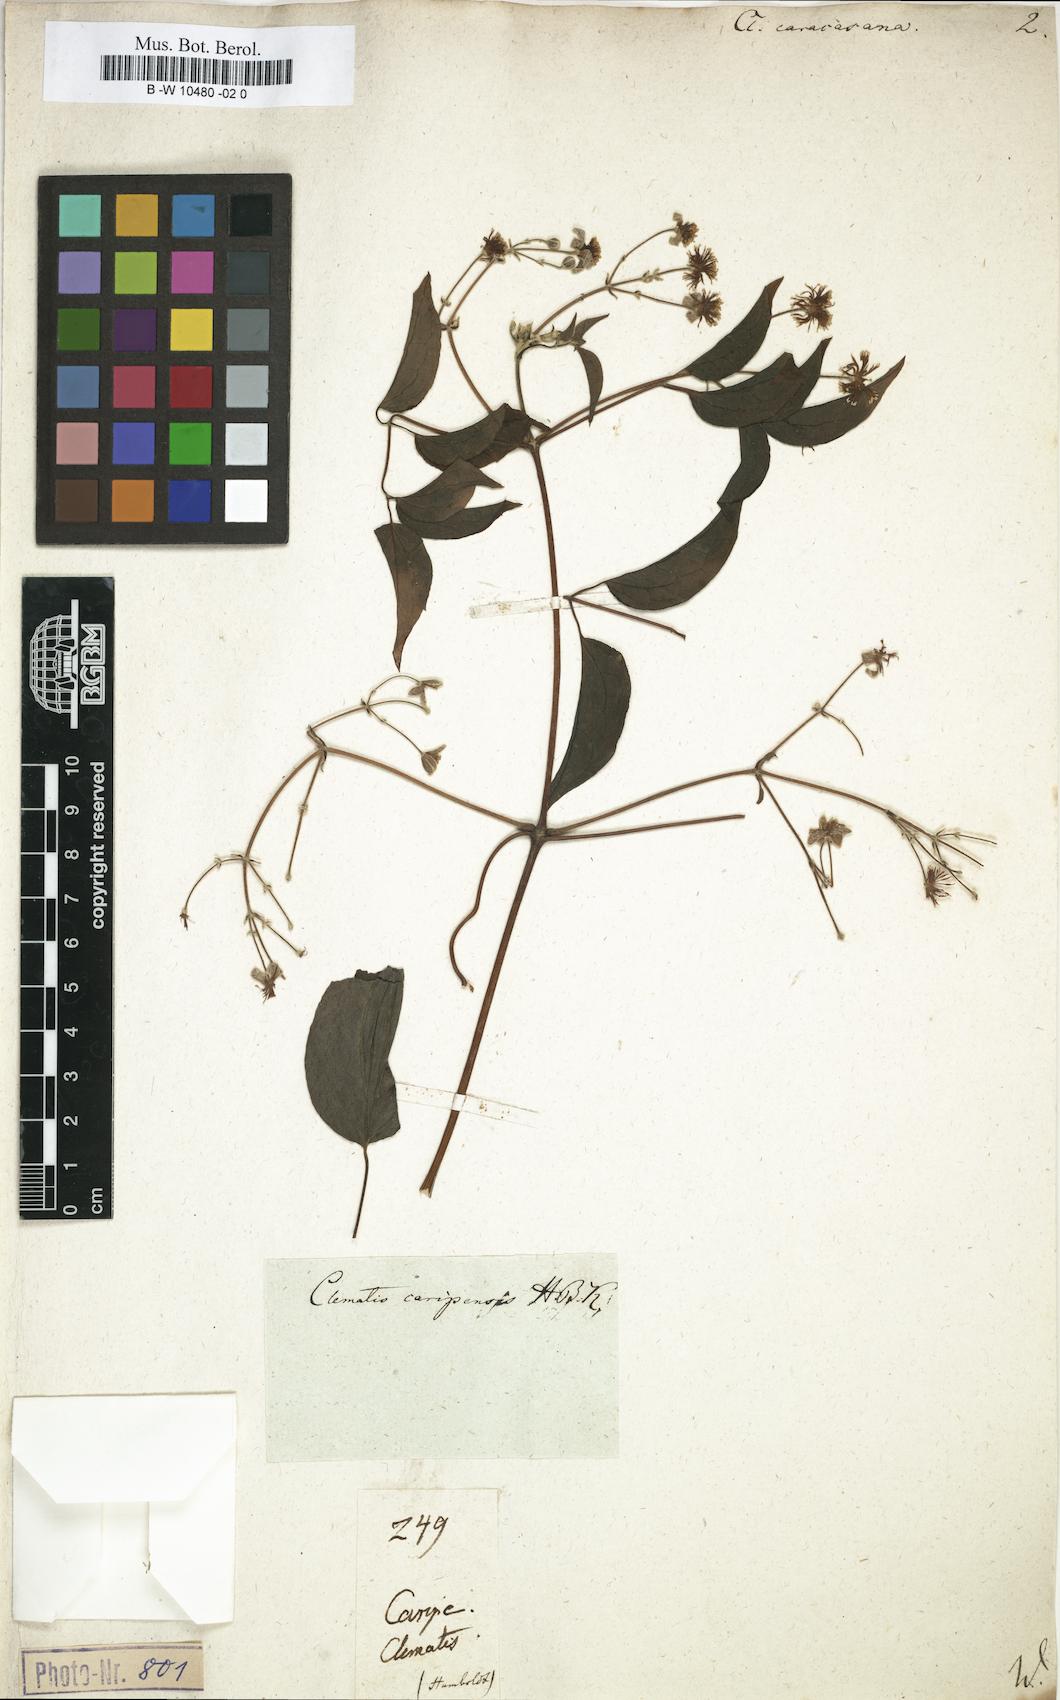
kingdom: Plantae
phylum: Tracheophyta
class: Magnoliopsida
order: Ranunculales
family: Ranunculaceae
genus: Clematis
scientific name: Clematis guadeloupae
